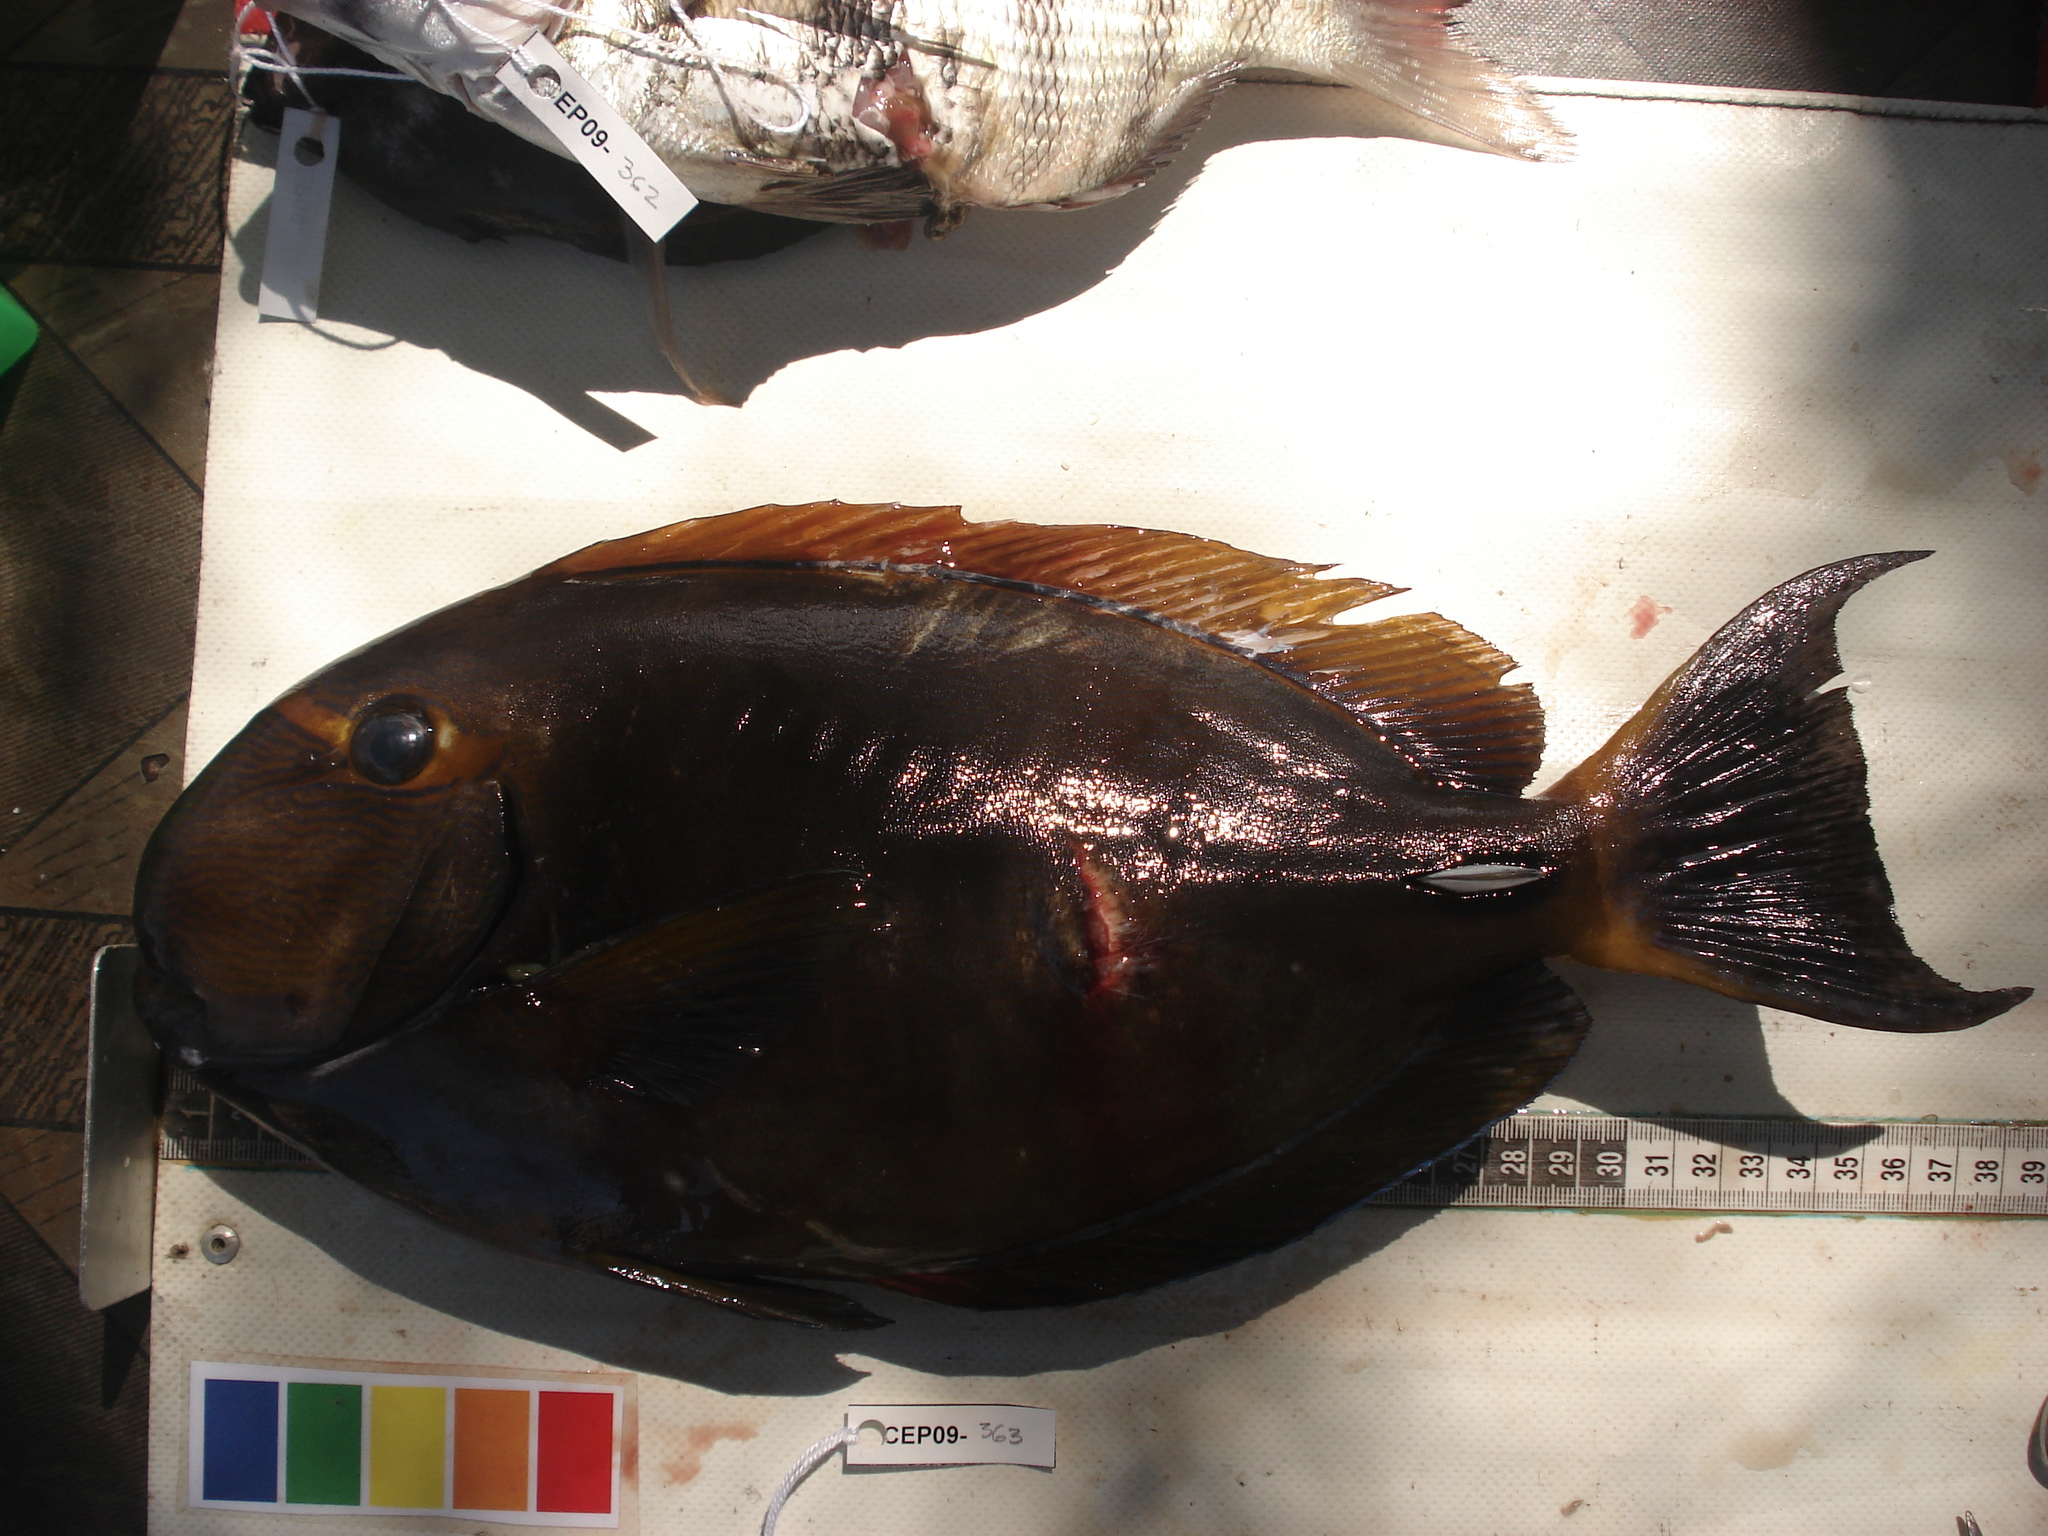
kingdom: Animalia
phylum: Chordata
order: Perciformes
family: Acanthuridae
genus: Acanthurus
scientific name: Acanthurus dussumieri
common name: Dussumier's surgeonfish
